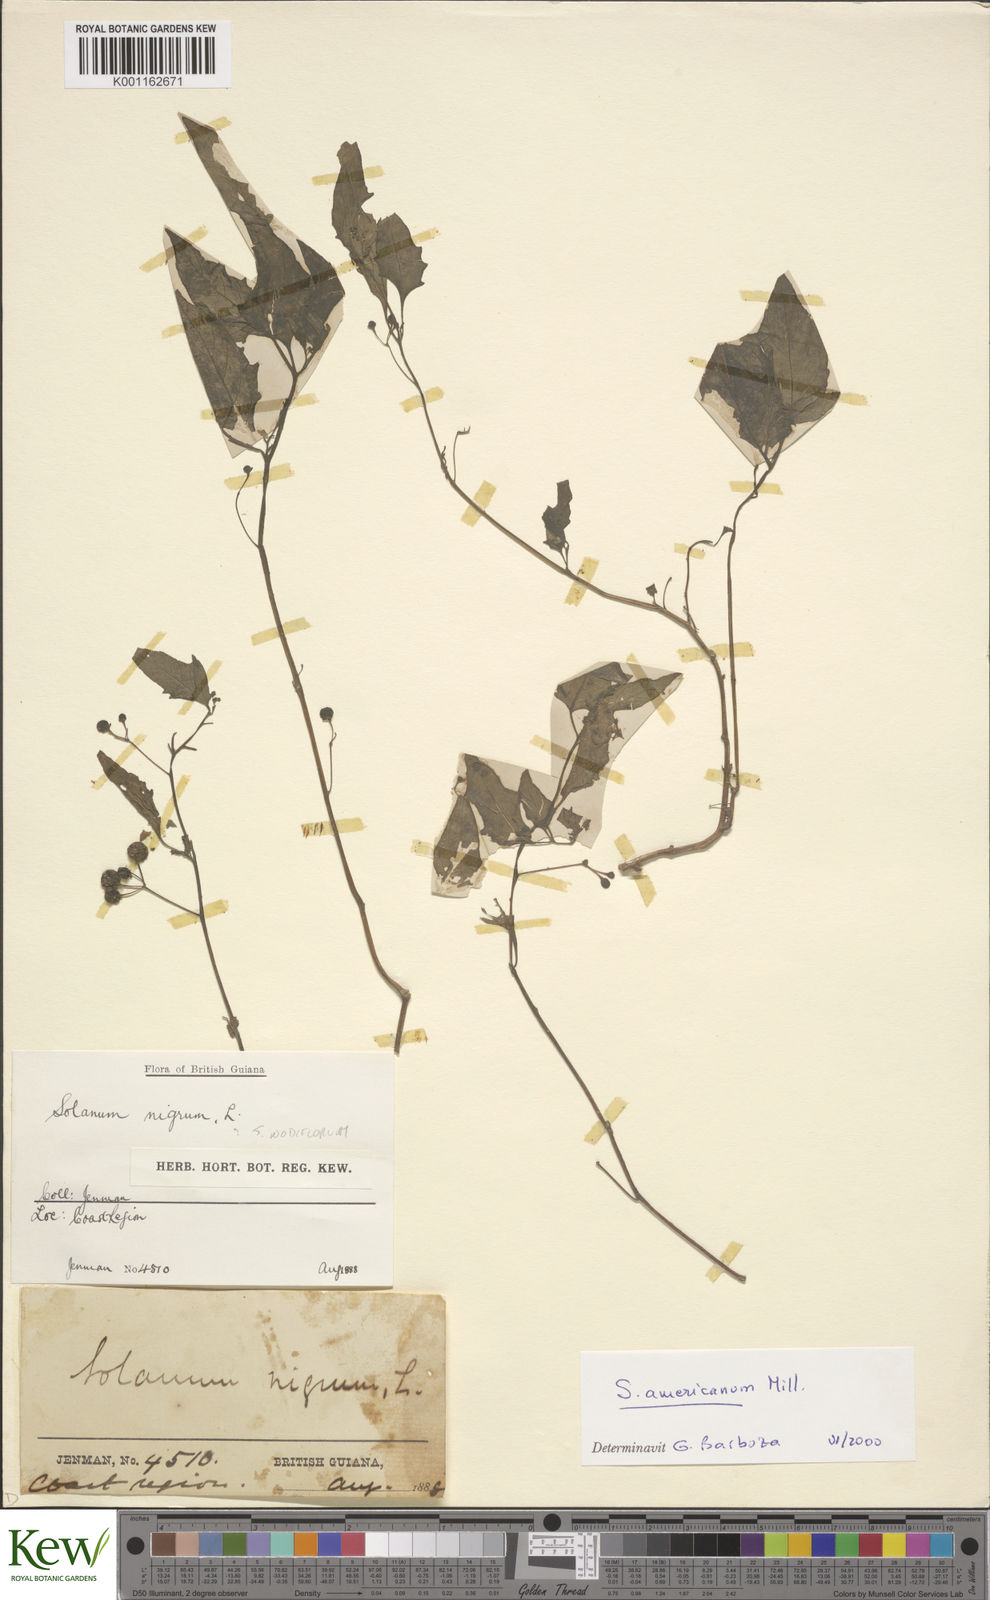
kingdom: Plantae
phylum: Tracheophyta
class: Magnoliopsida
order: Solanales
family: Solanaceae
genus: Solanum
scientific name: Solanum americanum
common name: American black nightshade
